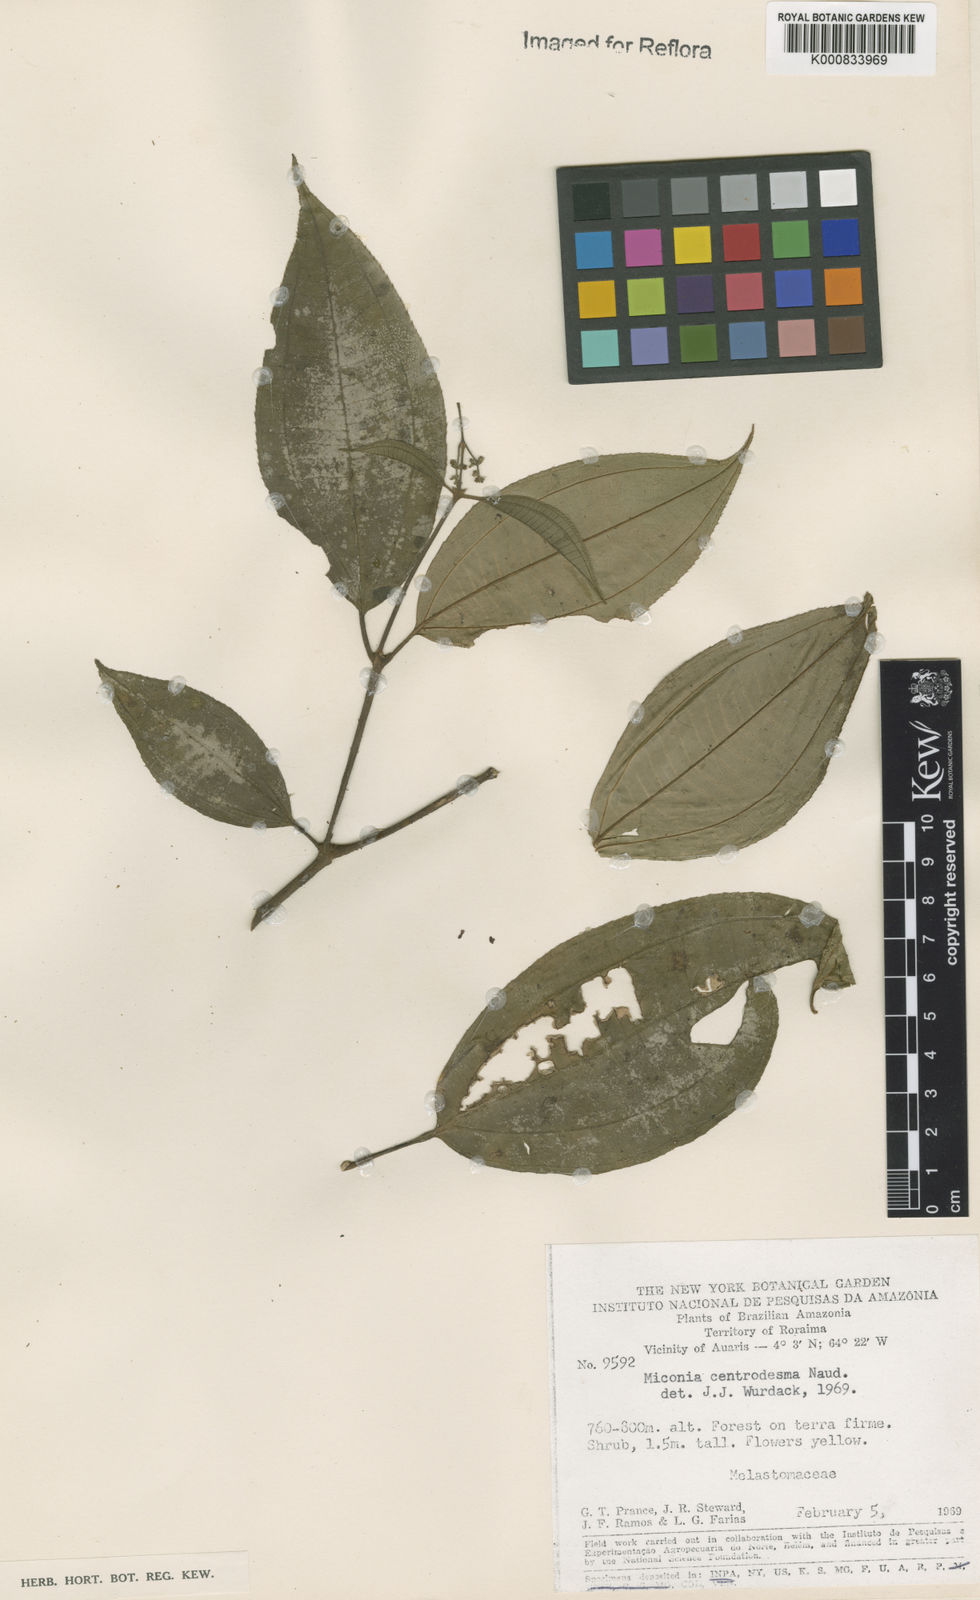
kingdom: Plantae
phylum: Tracheophyta
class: Magnoliopsida
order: Myrtales
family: Melastomataceae
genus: Miconia
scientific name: Miconia centrodesma
